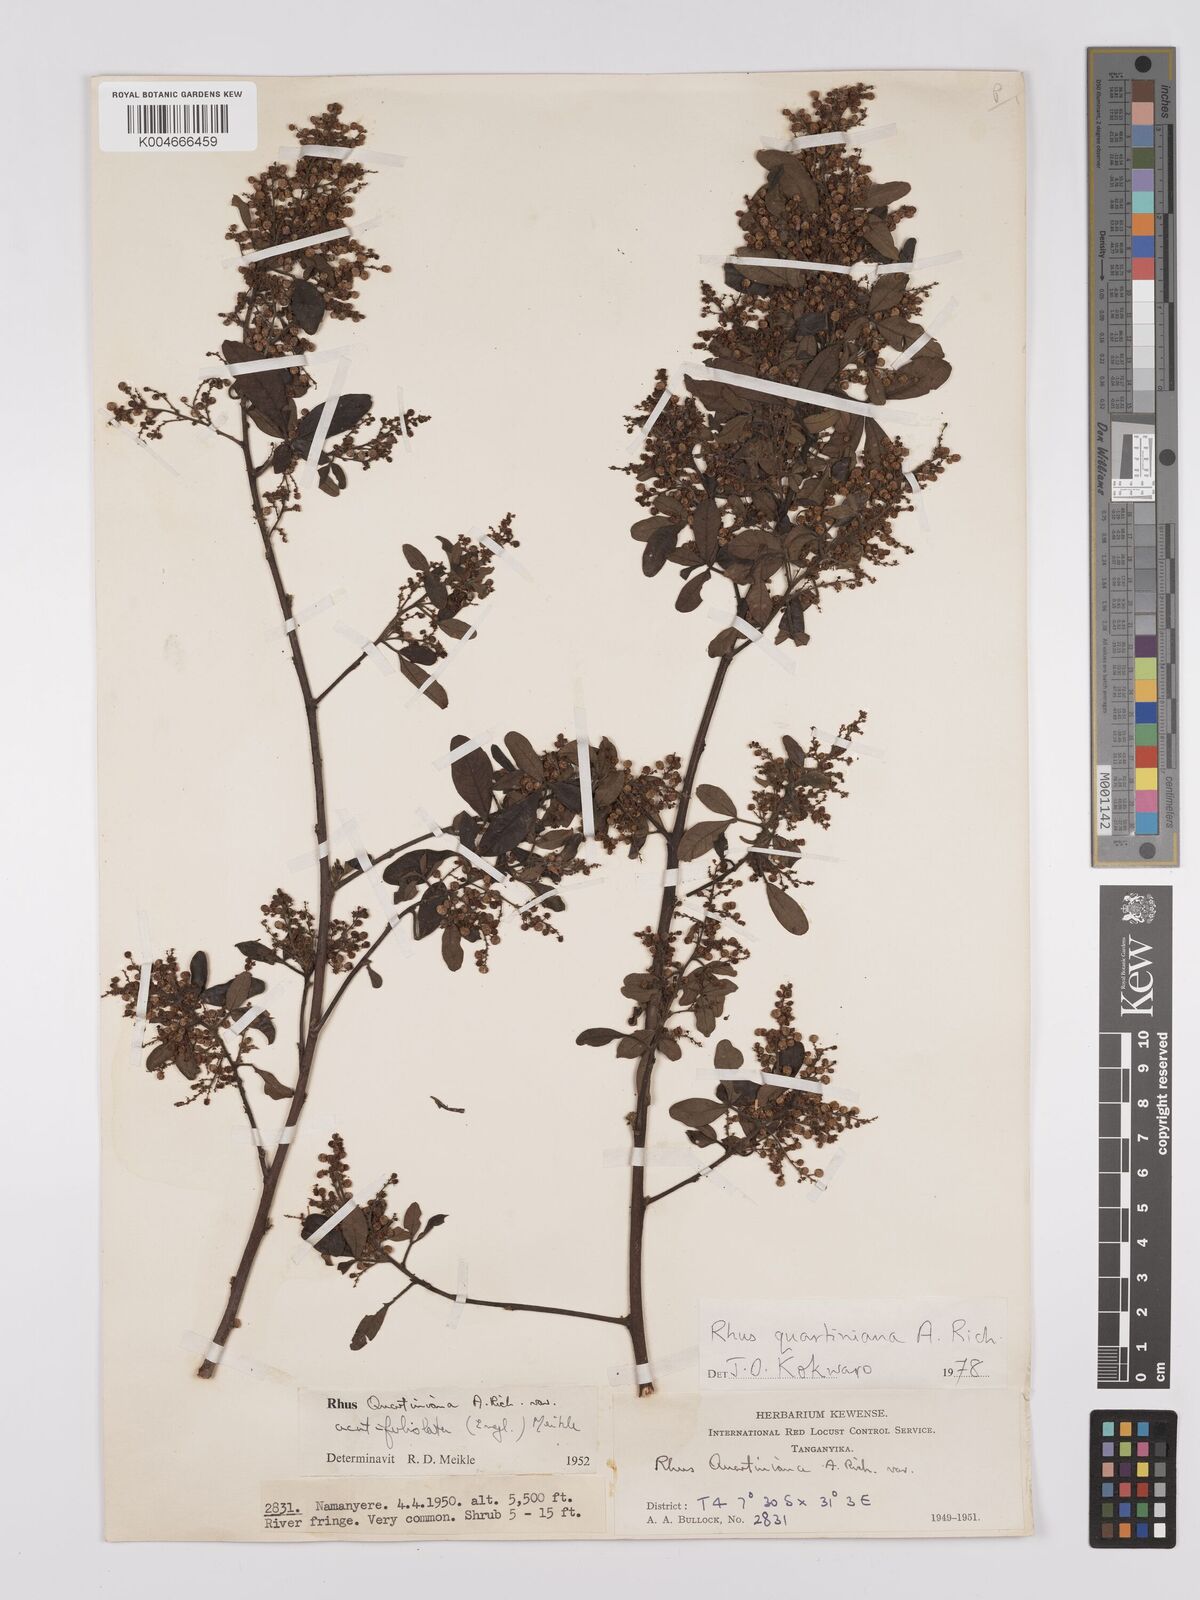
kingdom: Plantae
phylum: Tracheophyta
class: Magnoliopsida
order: Sapindales
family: Anacardiaceae
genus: Searsia
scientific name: Searsia quartiniana
